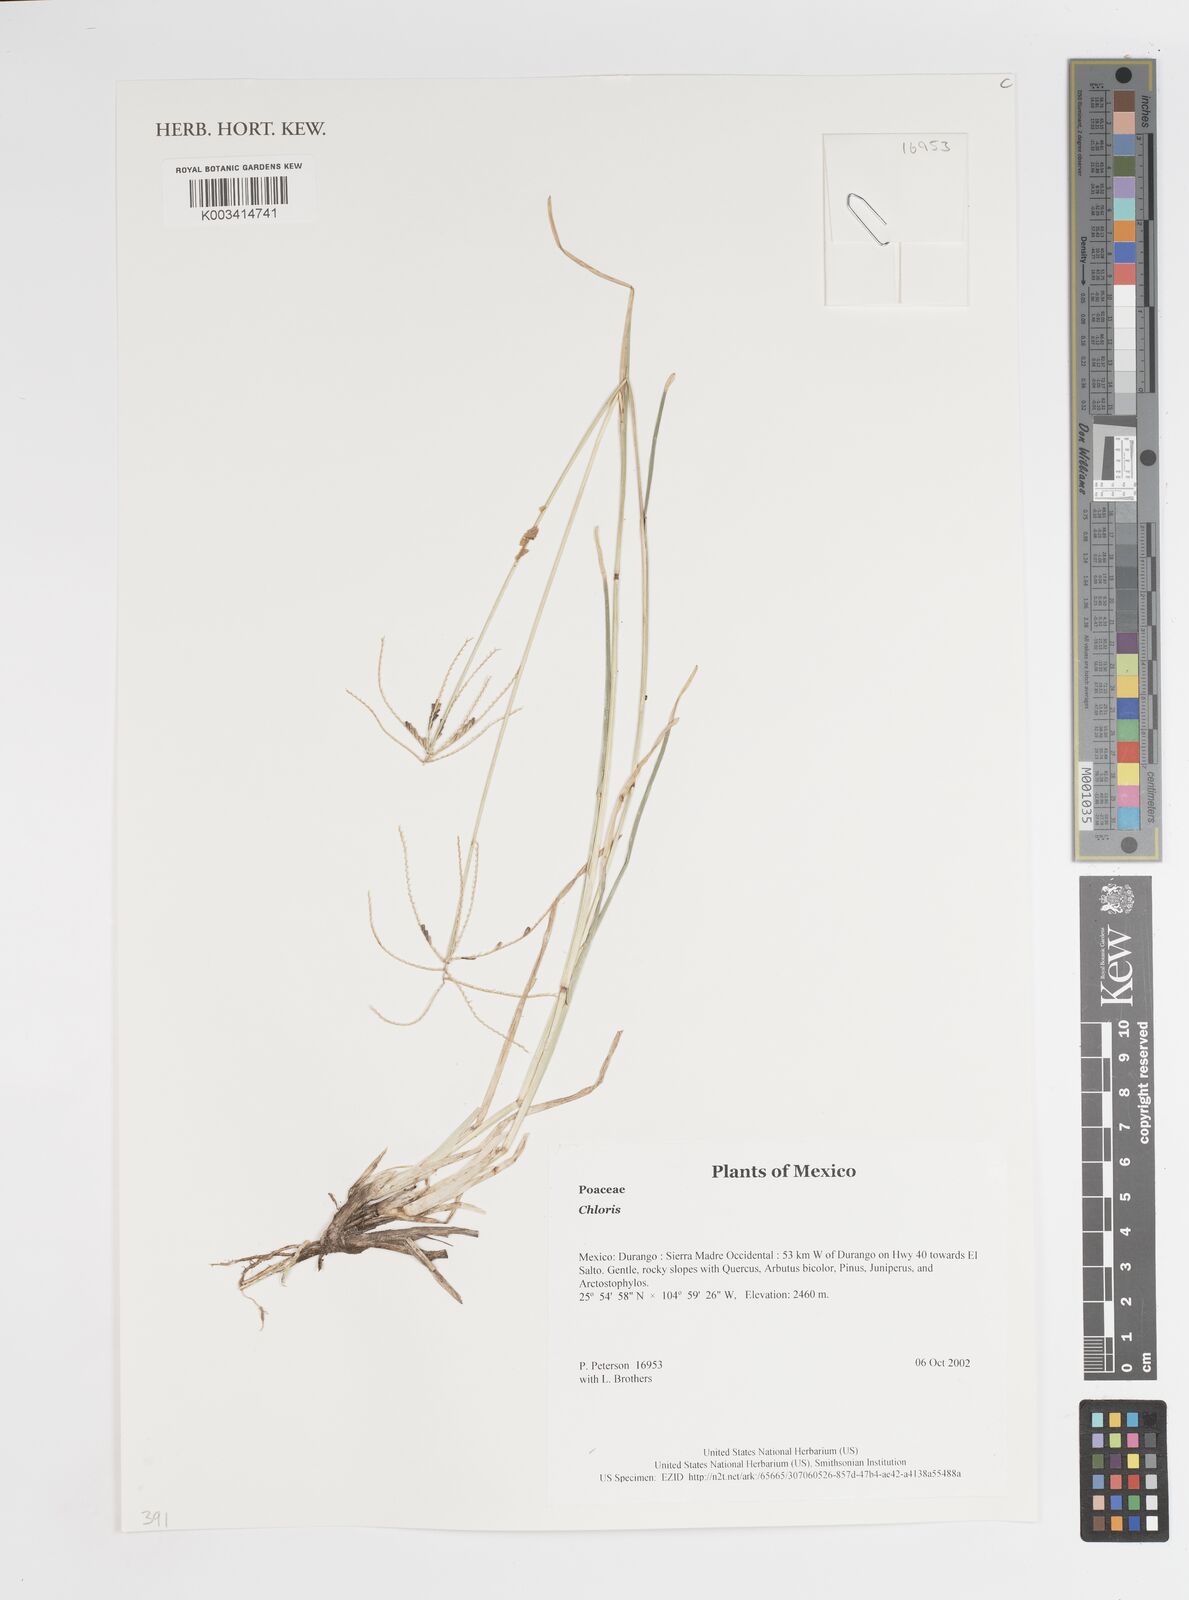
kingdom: Plantae
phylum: Tracheophyta
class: Liliopsida
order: Poales
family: Poaceae
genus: Chloris
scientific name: Chloris
